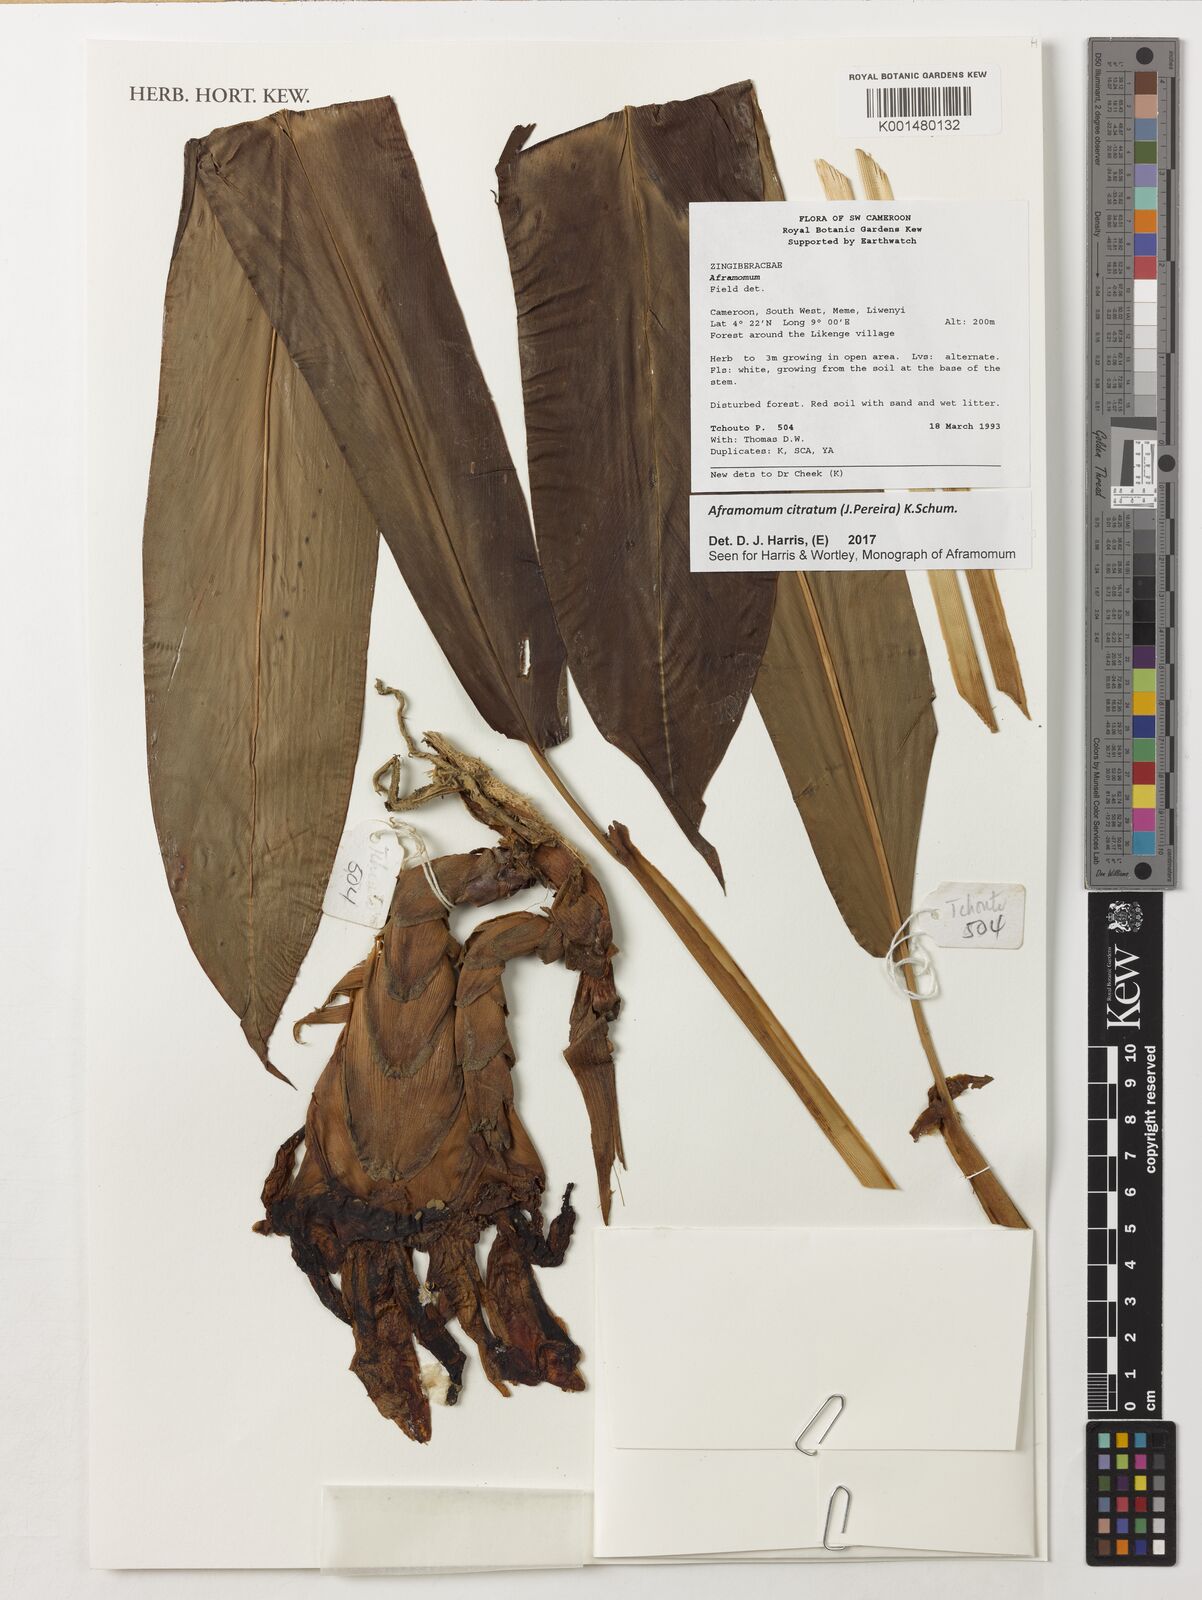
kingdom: Plantae
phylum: Tracheophyta
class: Liliopsida
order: Zingiberales
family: Zingiberaceae
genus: Aframomum
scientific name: Aframomum citratum
